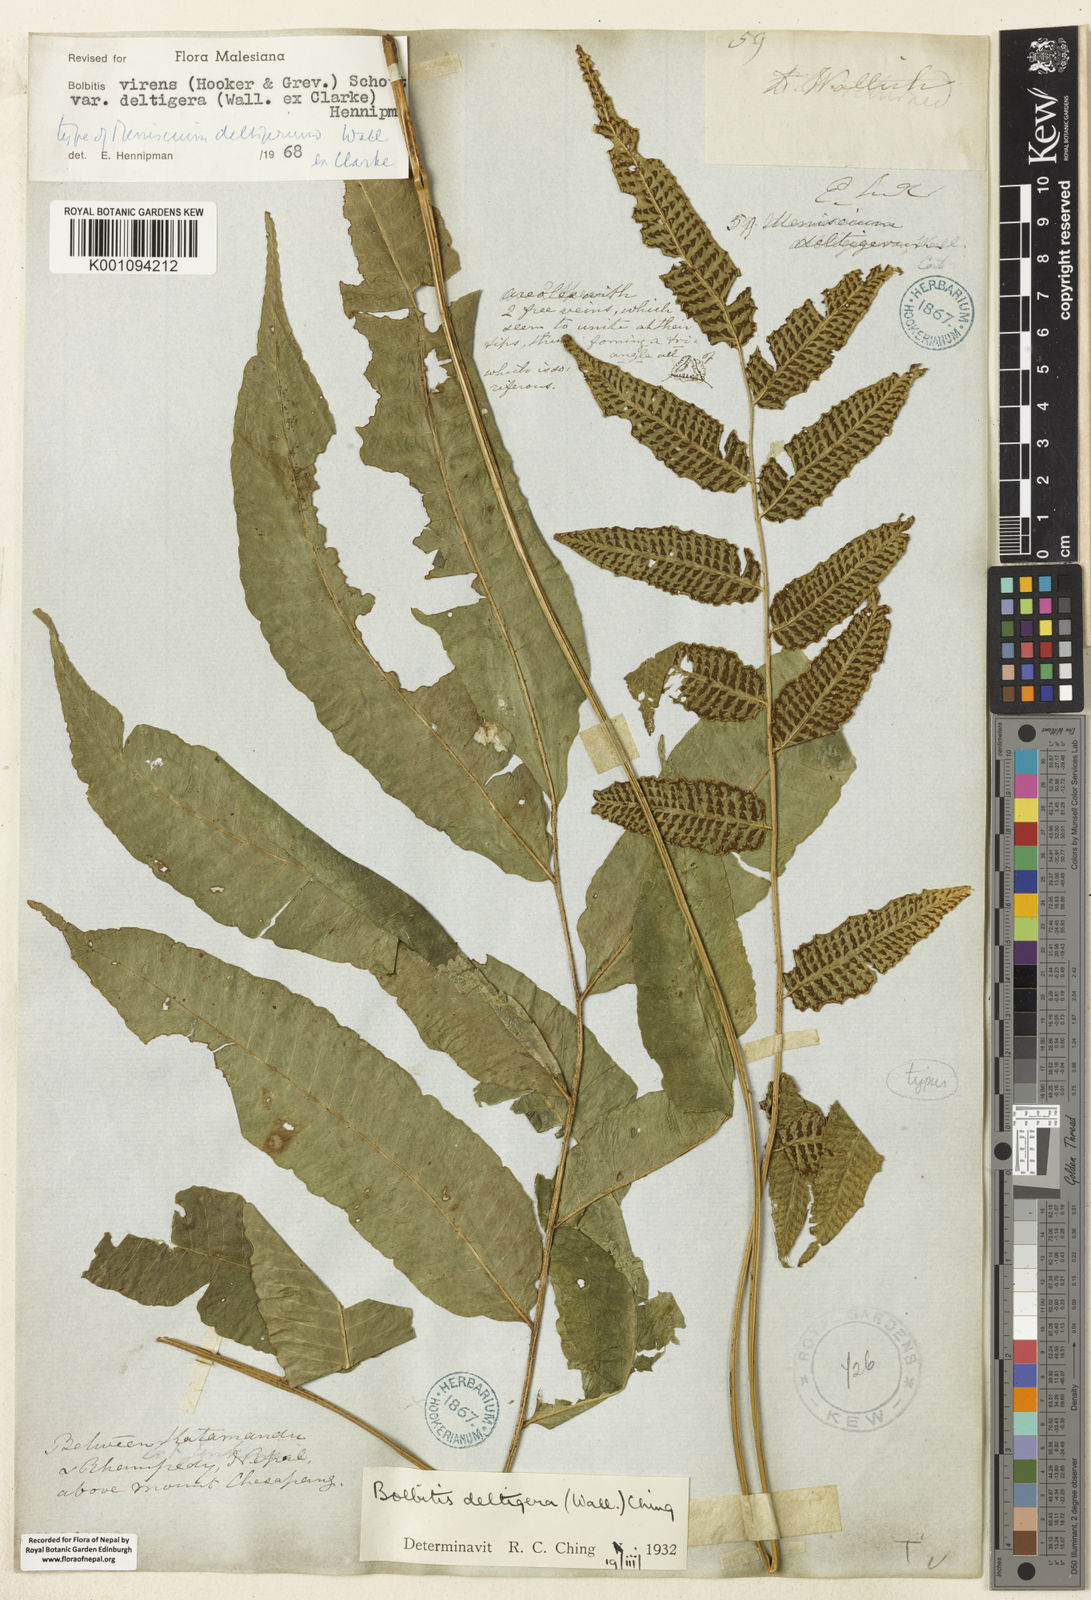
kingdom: Plantae
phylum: Tracheophyta
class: Polypodiopsida
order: Polypodiales
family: Dryopteridaceae
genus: Bolbitis
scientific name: Bolbitis deltigera
